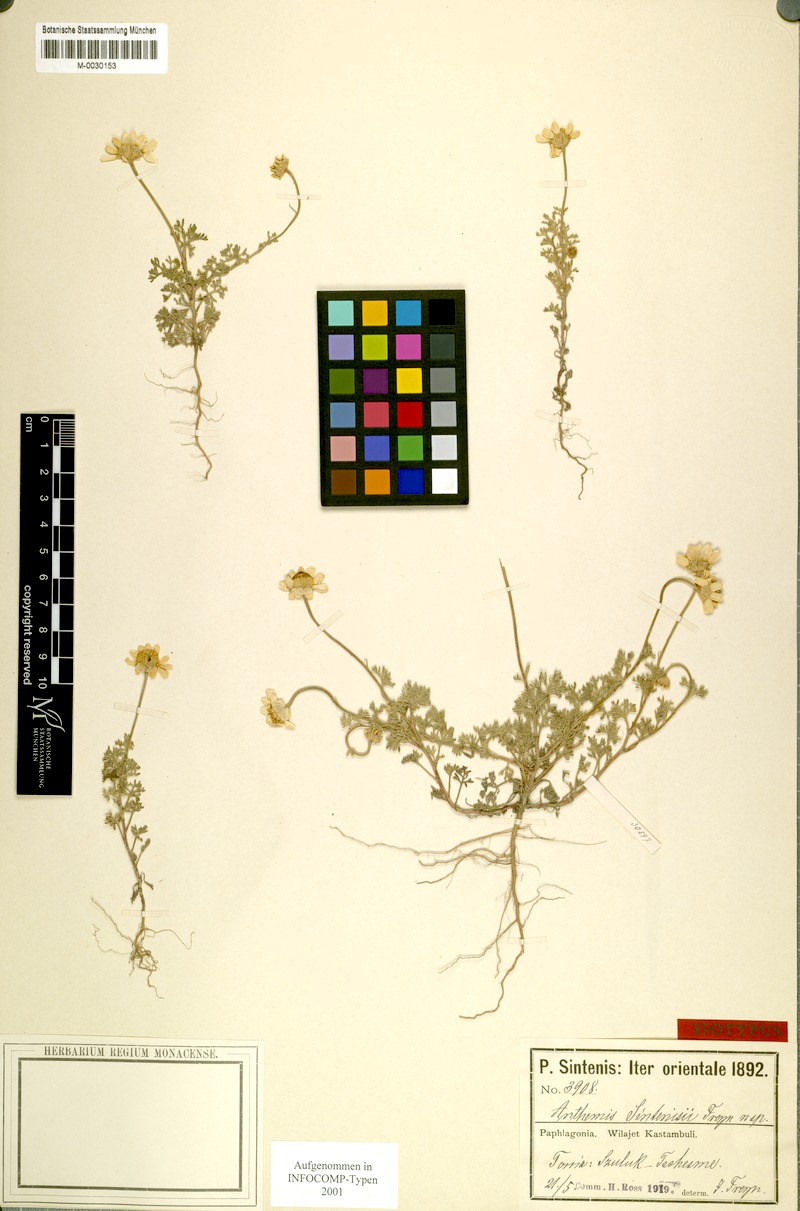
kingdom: Plantae
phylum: Tracheophyta
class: Magnoliopsida
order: Asterales
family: Asteraceae
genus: Anthemis
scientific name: Anthemis sintenisii
